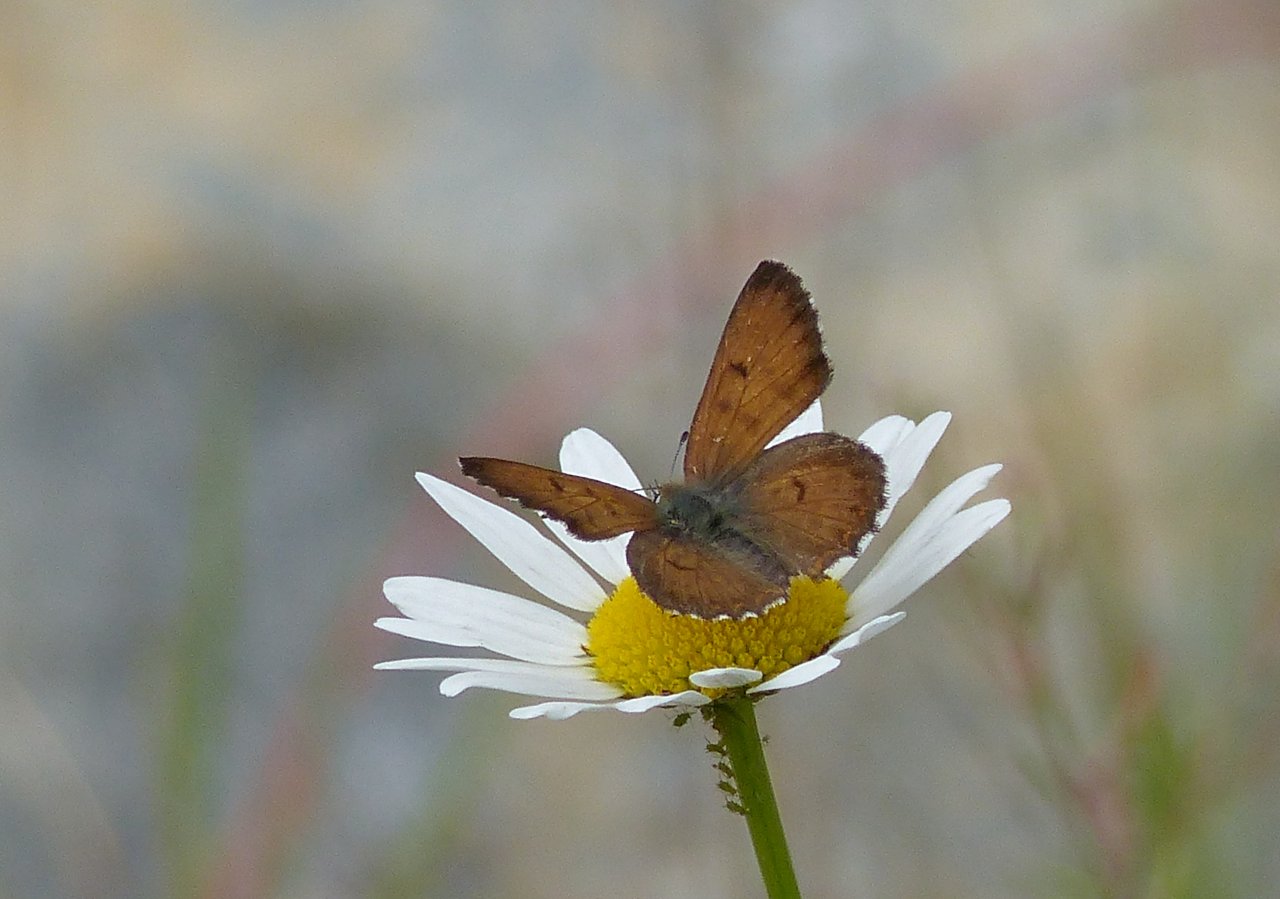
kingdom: Animalia
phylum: Arthropoda
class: Insecta
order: Lepidoptera
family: Lycaenidae
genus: Lycaena
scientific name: Lycaena mariposa
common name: Mariposa Copper
